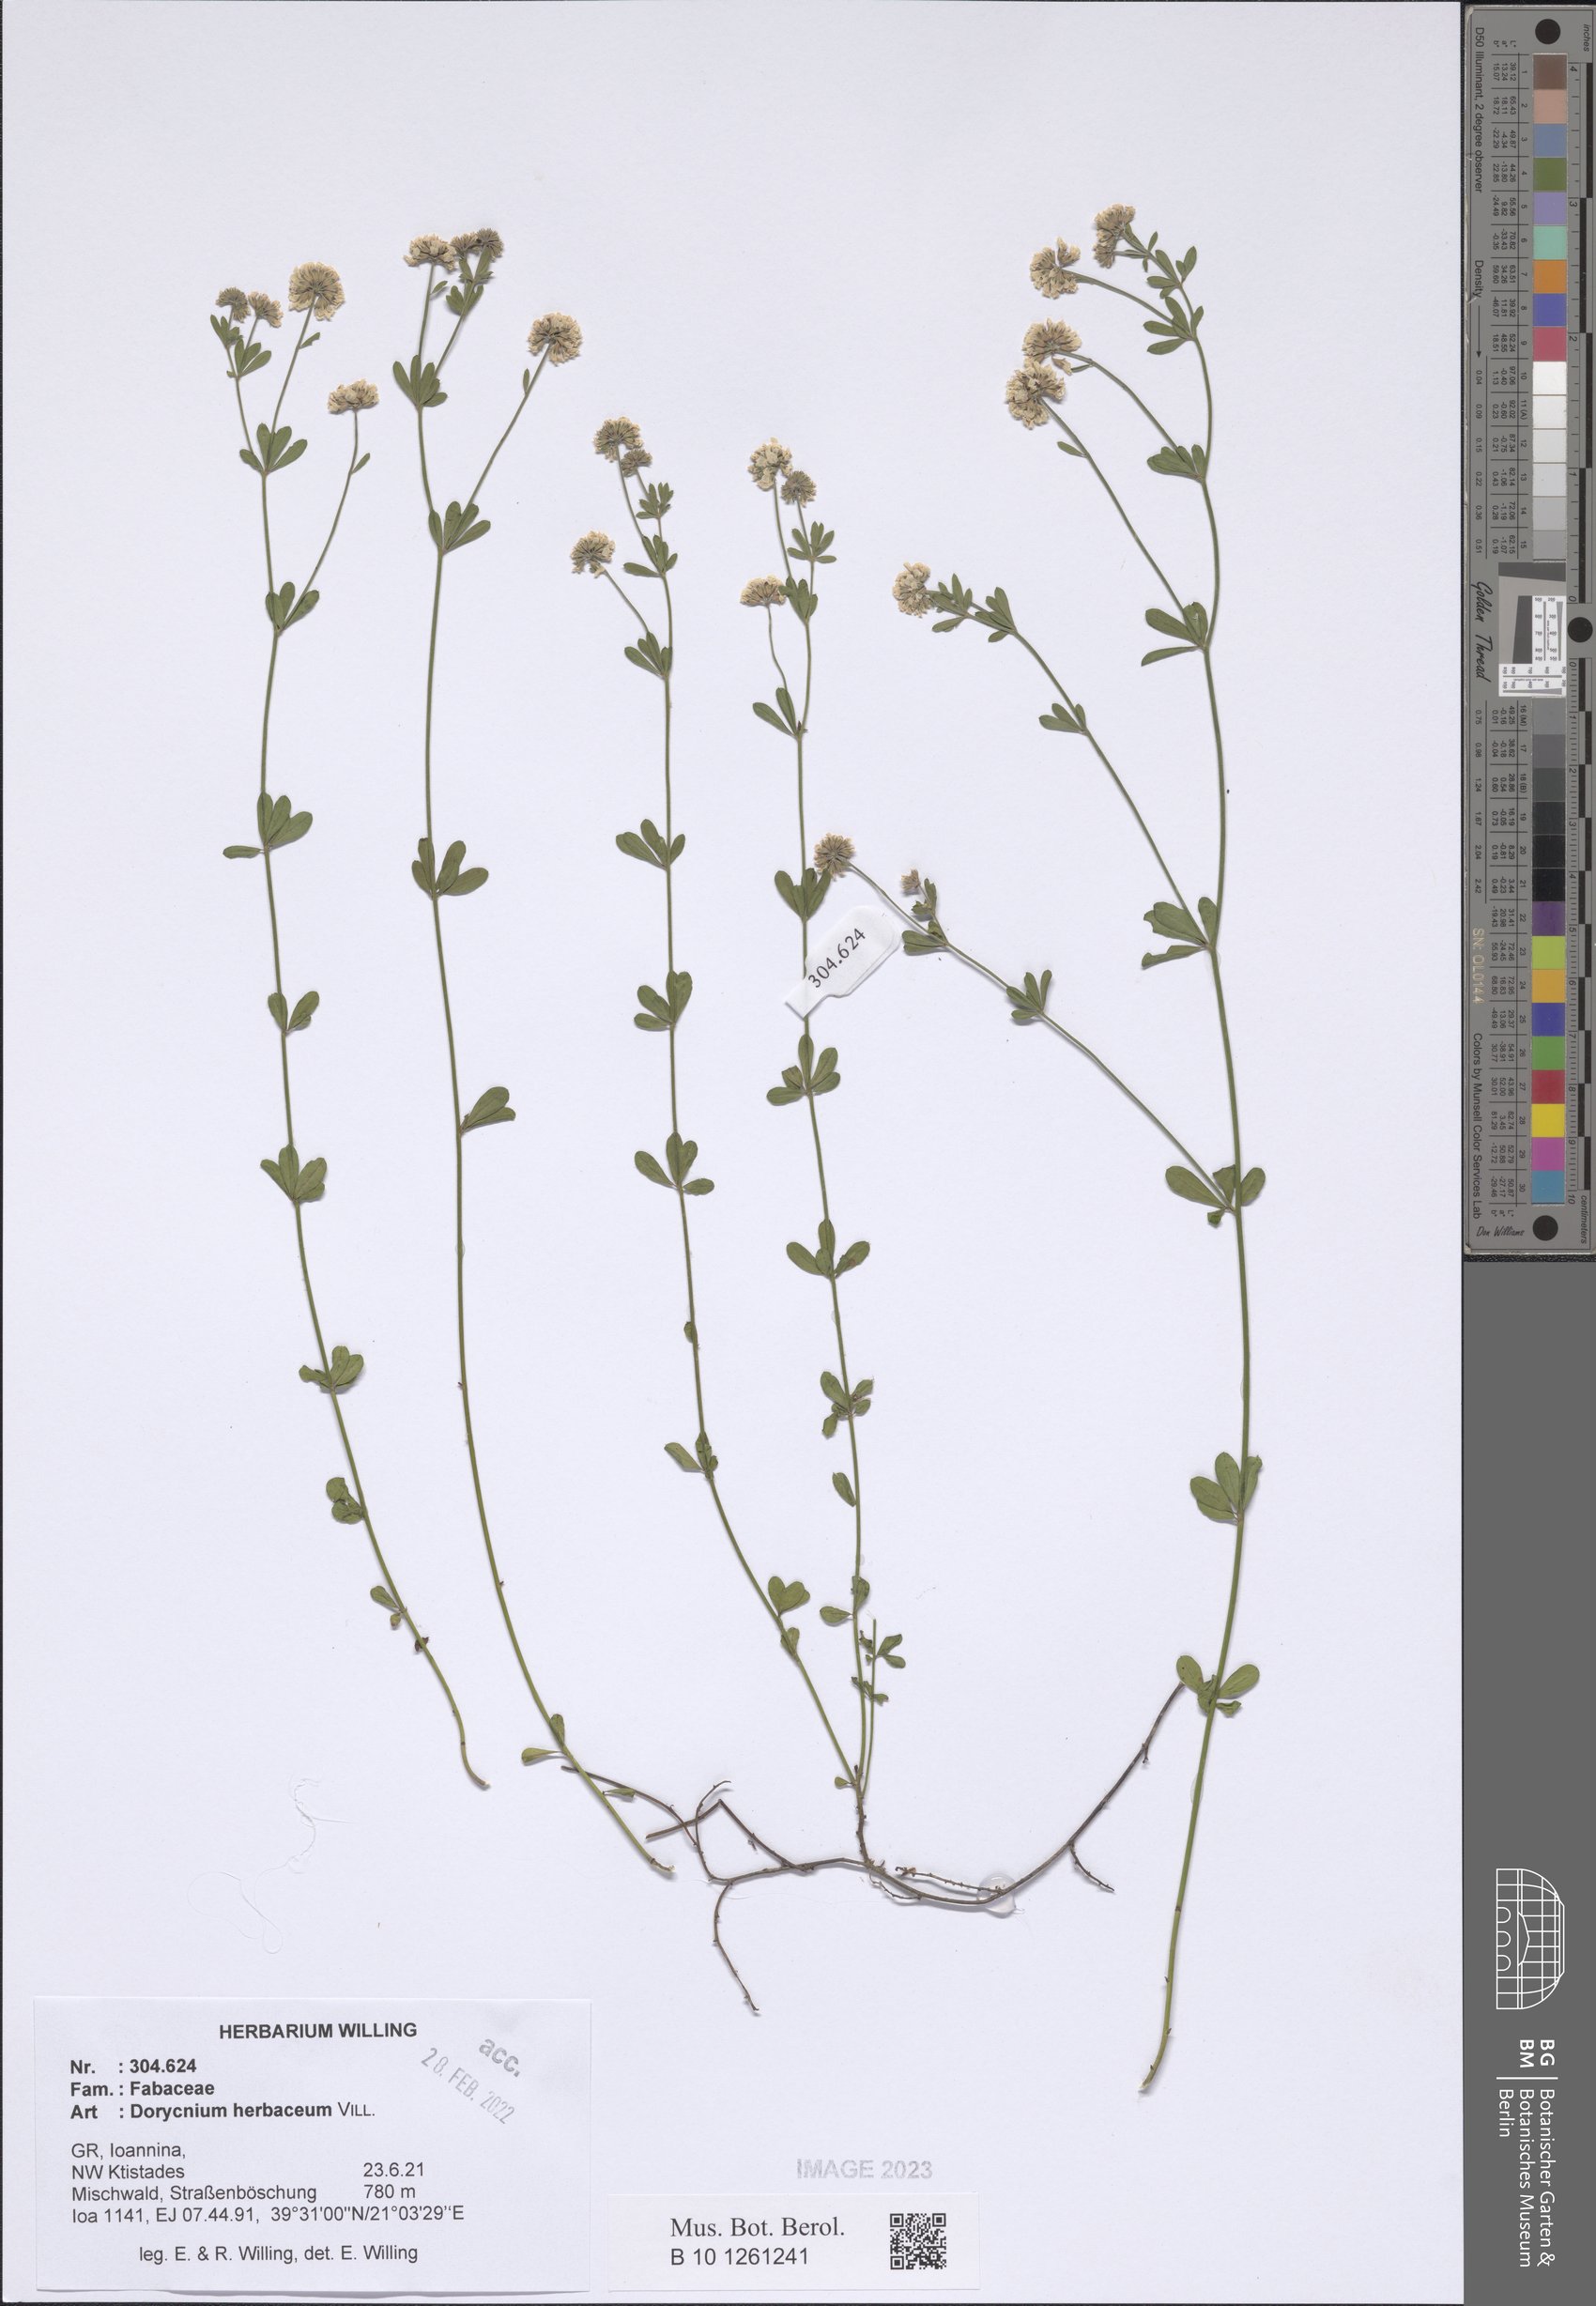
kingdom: Plantae
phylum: Tracheophyta
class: Magnoliopsida
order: Fabales
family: Fabaceae
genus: Lotus
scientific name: Lotus herbaceus
